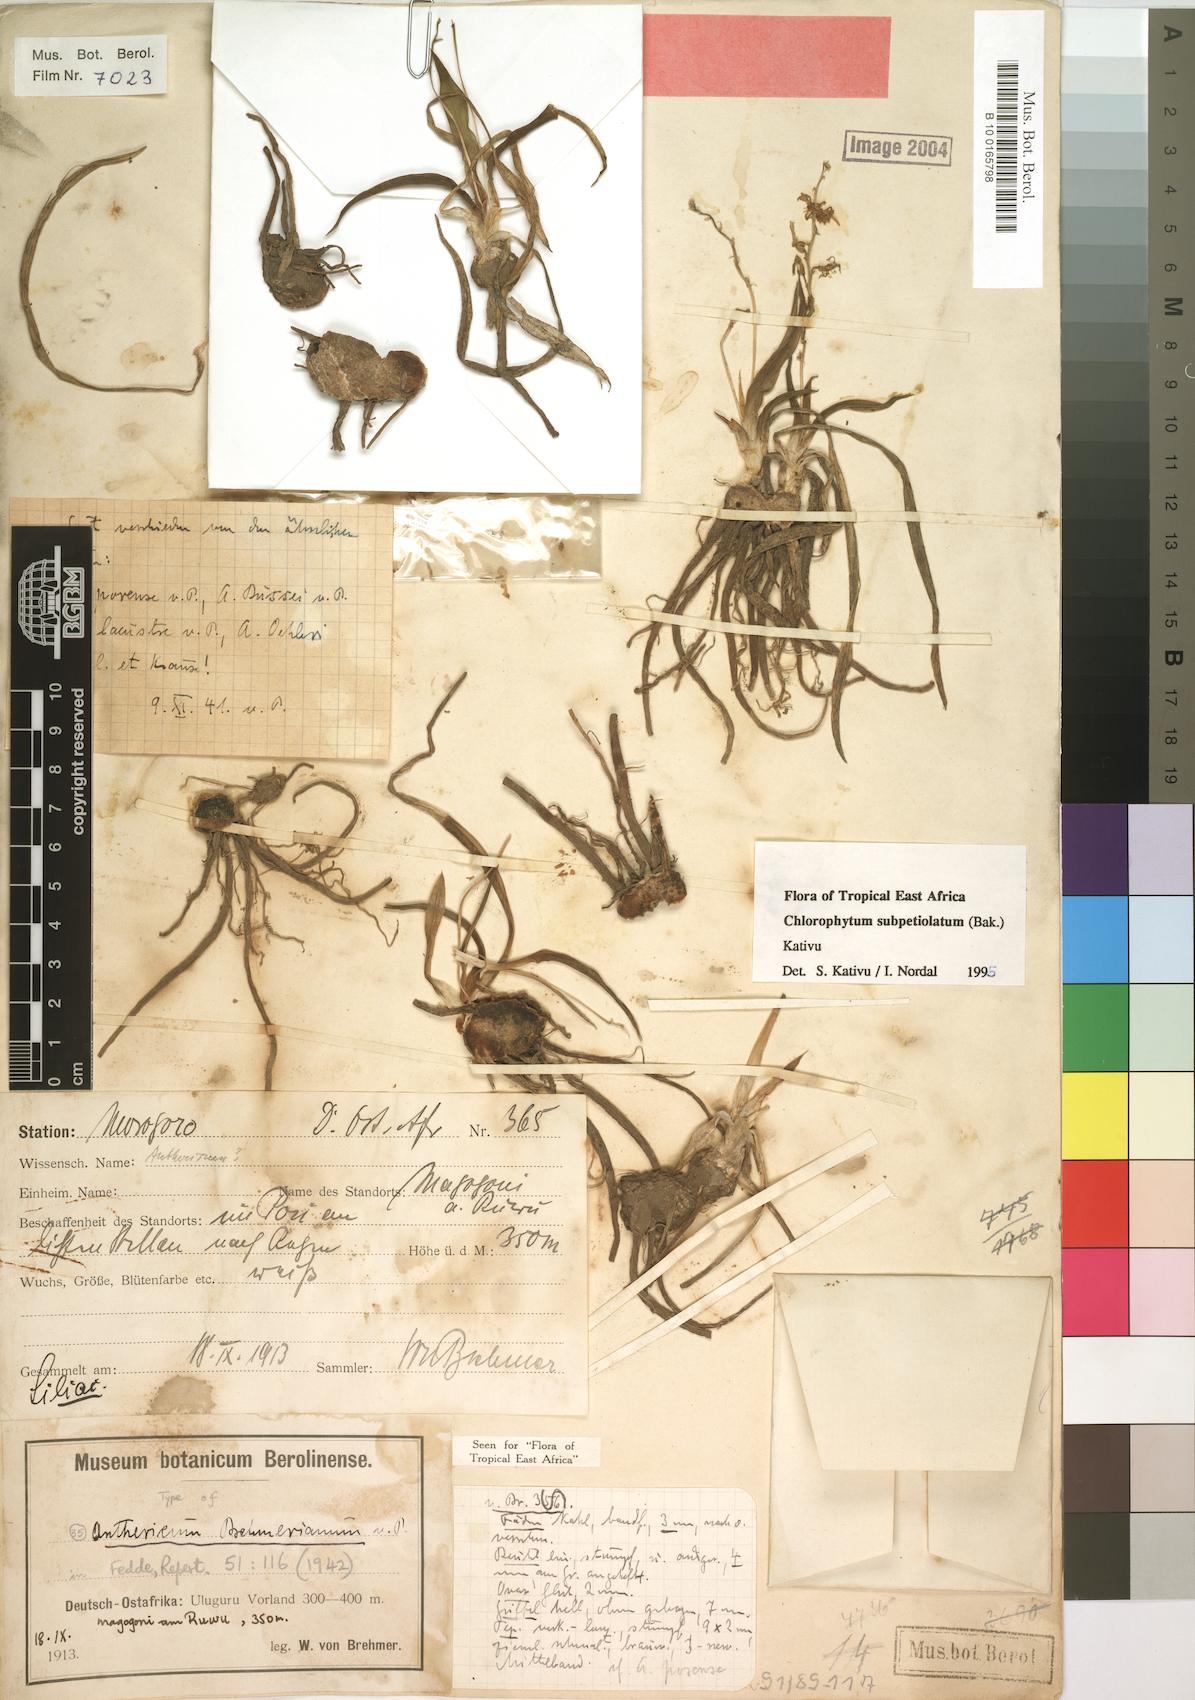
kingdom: Plantae
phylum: Tracheophyta
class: Liliopsida
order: Asparagales
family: Asparagaceae
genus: Chlorophytum
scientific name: Chlorophytum subpetiolatum
